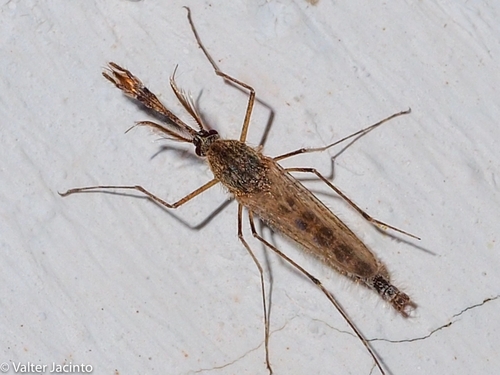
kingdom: Animalia
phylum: Arthropoda
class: Insecta
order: Diptera
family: Culicidae
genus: Aedes
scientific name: Aedes rusticus
